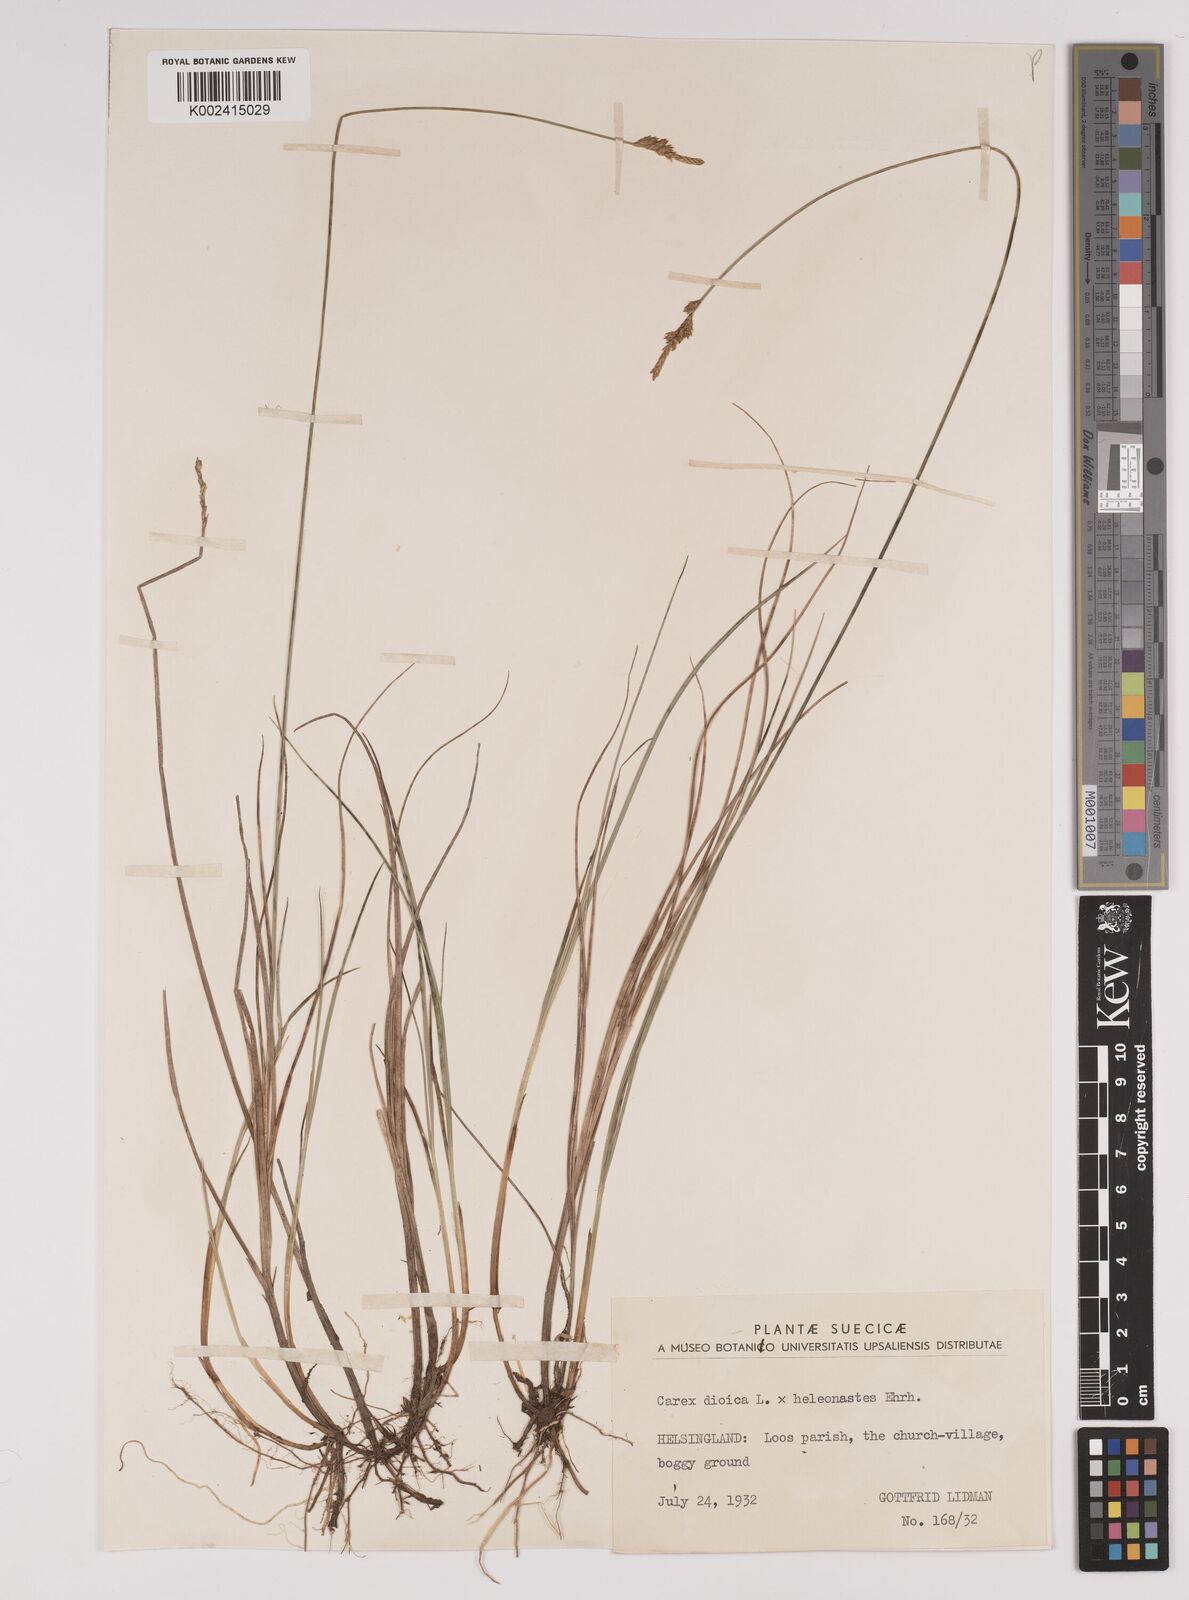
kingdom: Plantae
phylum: Tracheophyta
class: Liliopsida
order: Poales
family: Cyperaceae
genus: Carex
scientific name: Carex dioica
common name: Dioecious sedge
